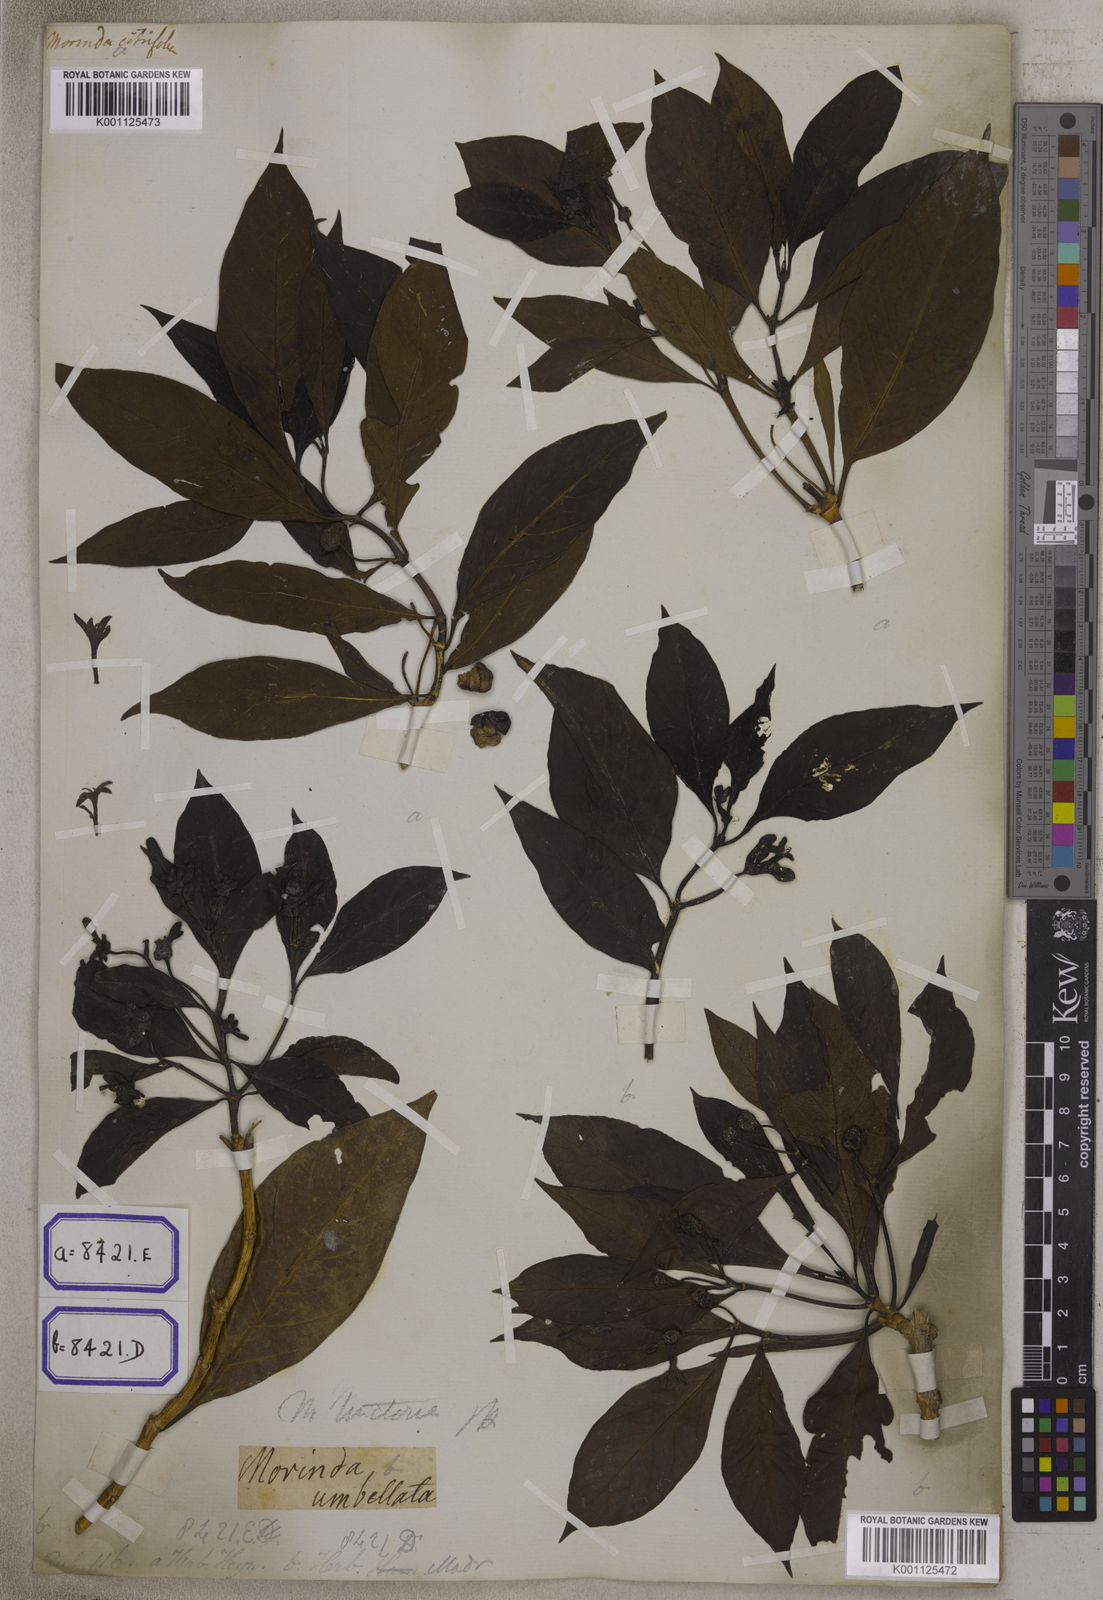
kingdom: Plantae
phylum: Tracheophyta
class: Magnoliopsida
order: Gentianales
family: Rubiaceae
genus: Morinda
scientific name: Morinda coreia
